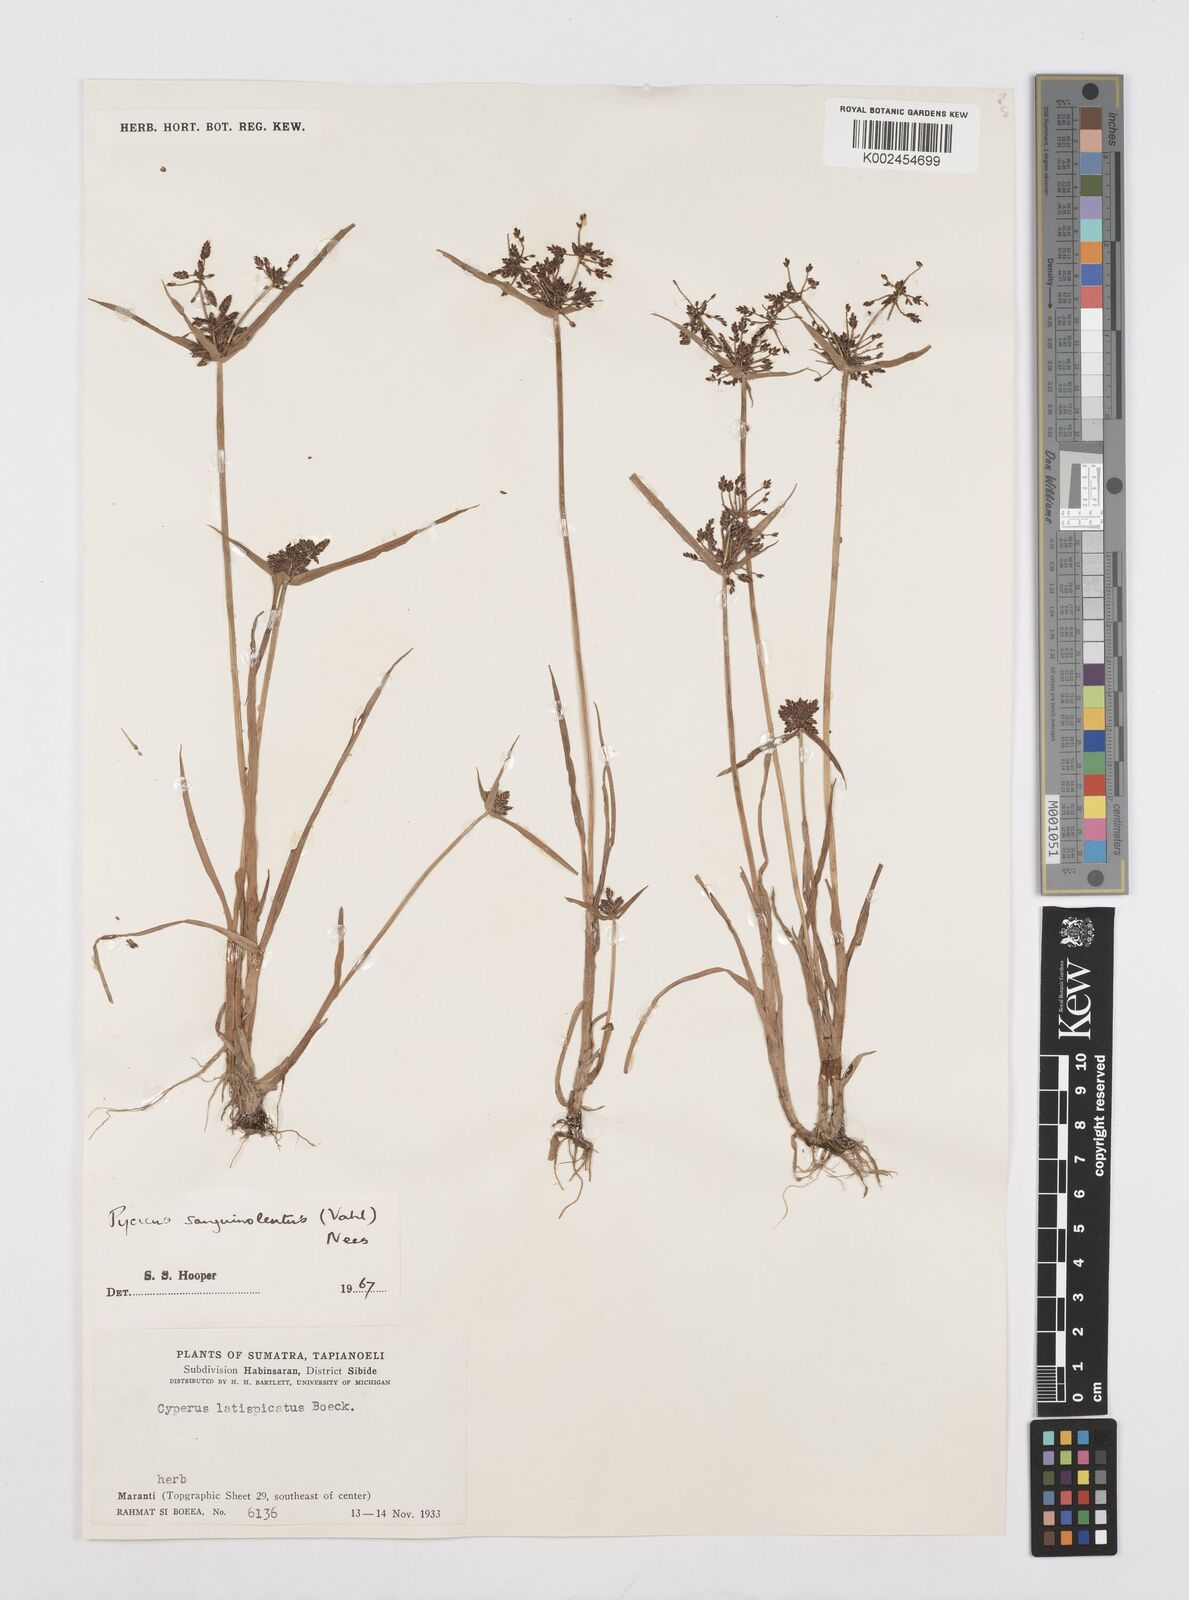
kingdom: Plantae
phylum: Tracheophyta
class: Liliopsida
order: Poales
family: Cyperaceae
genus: Cyperus
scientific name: Cyperus sanguinolentus
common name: Purpleglume flatsedge
